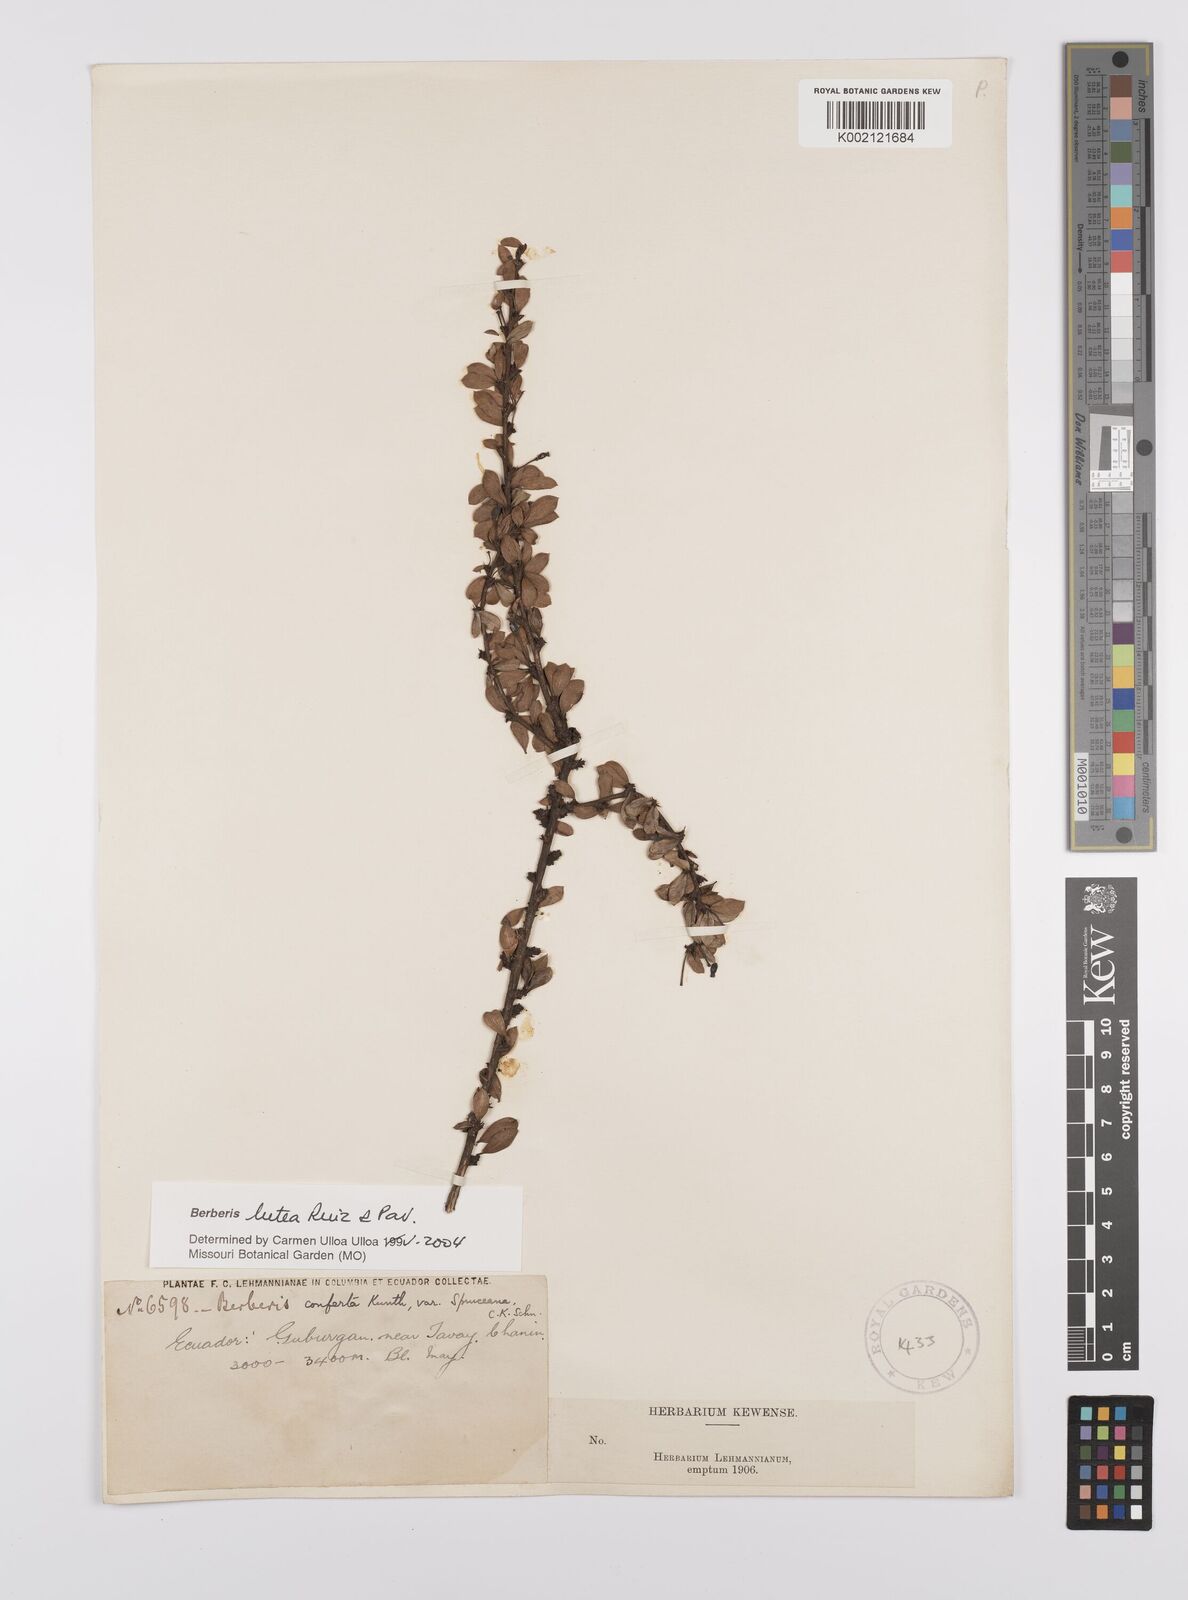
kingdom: Plantae
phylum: Tracheophyta
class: Magnoliopsida
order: Ranunculales
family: Berberidaceae
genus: Berberis
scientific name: Berberis lutea
